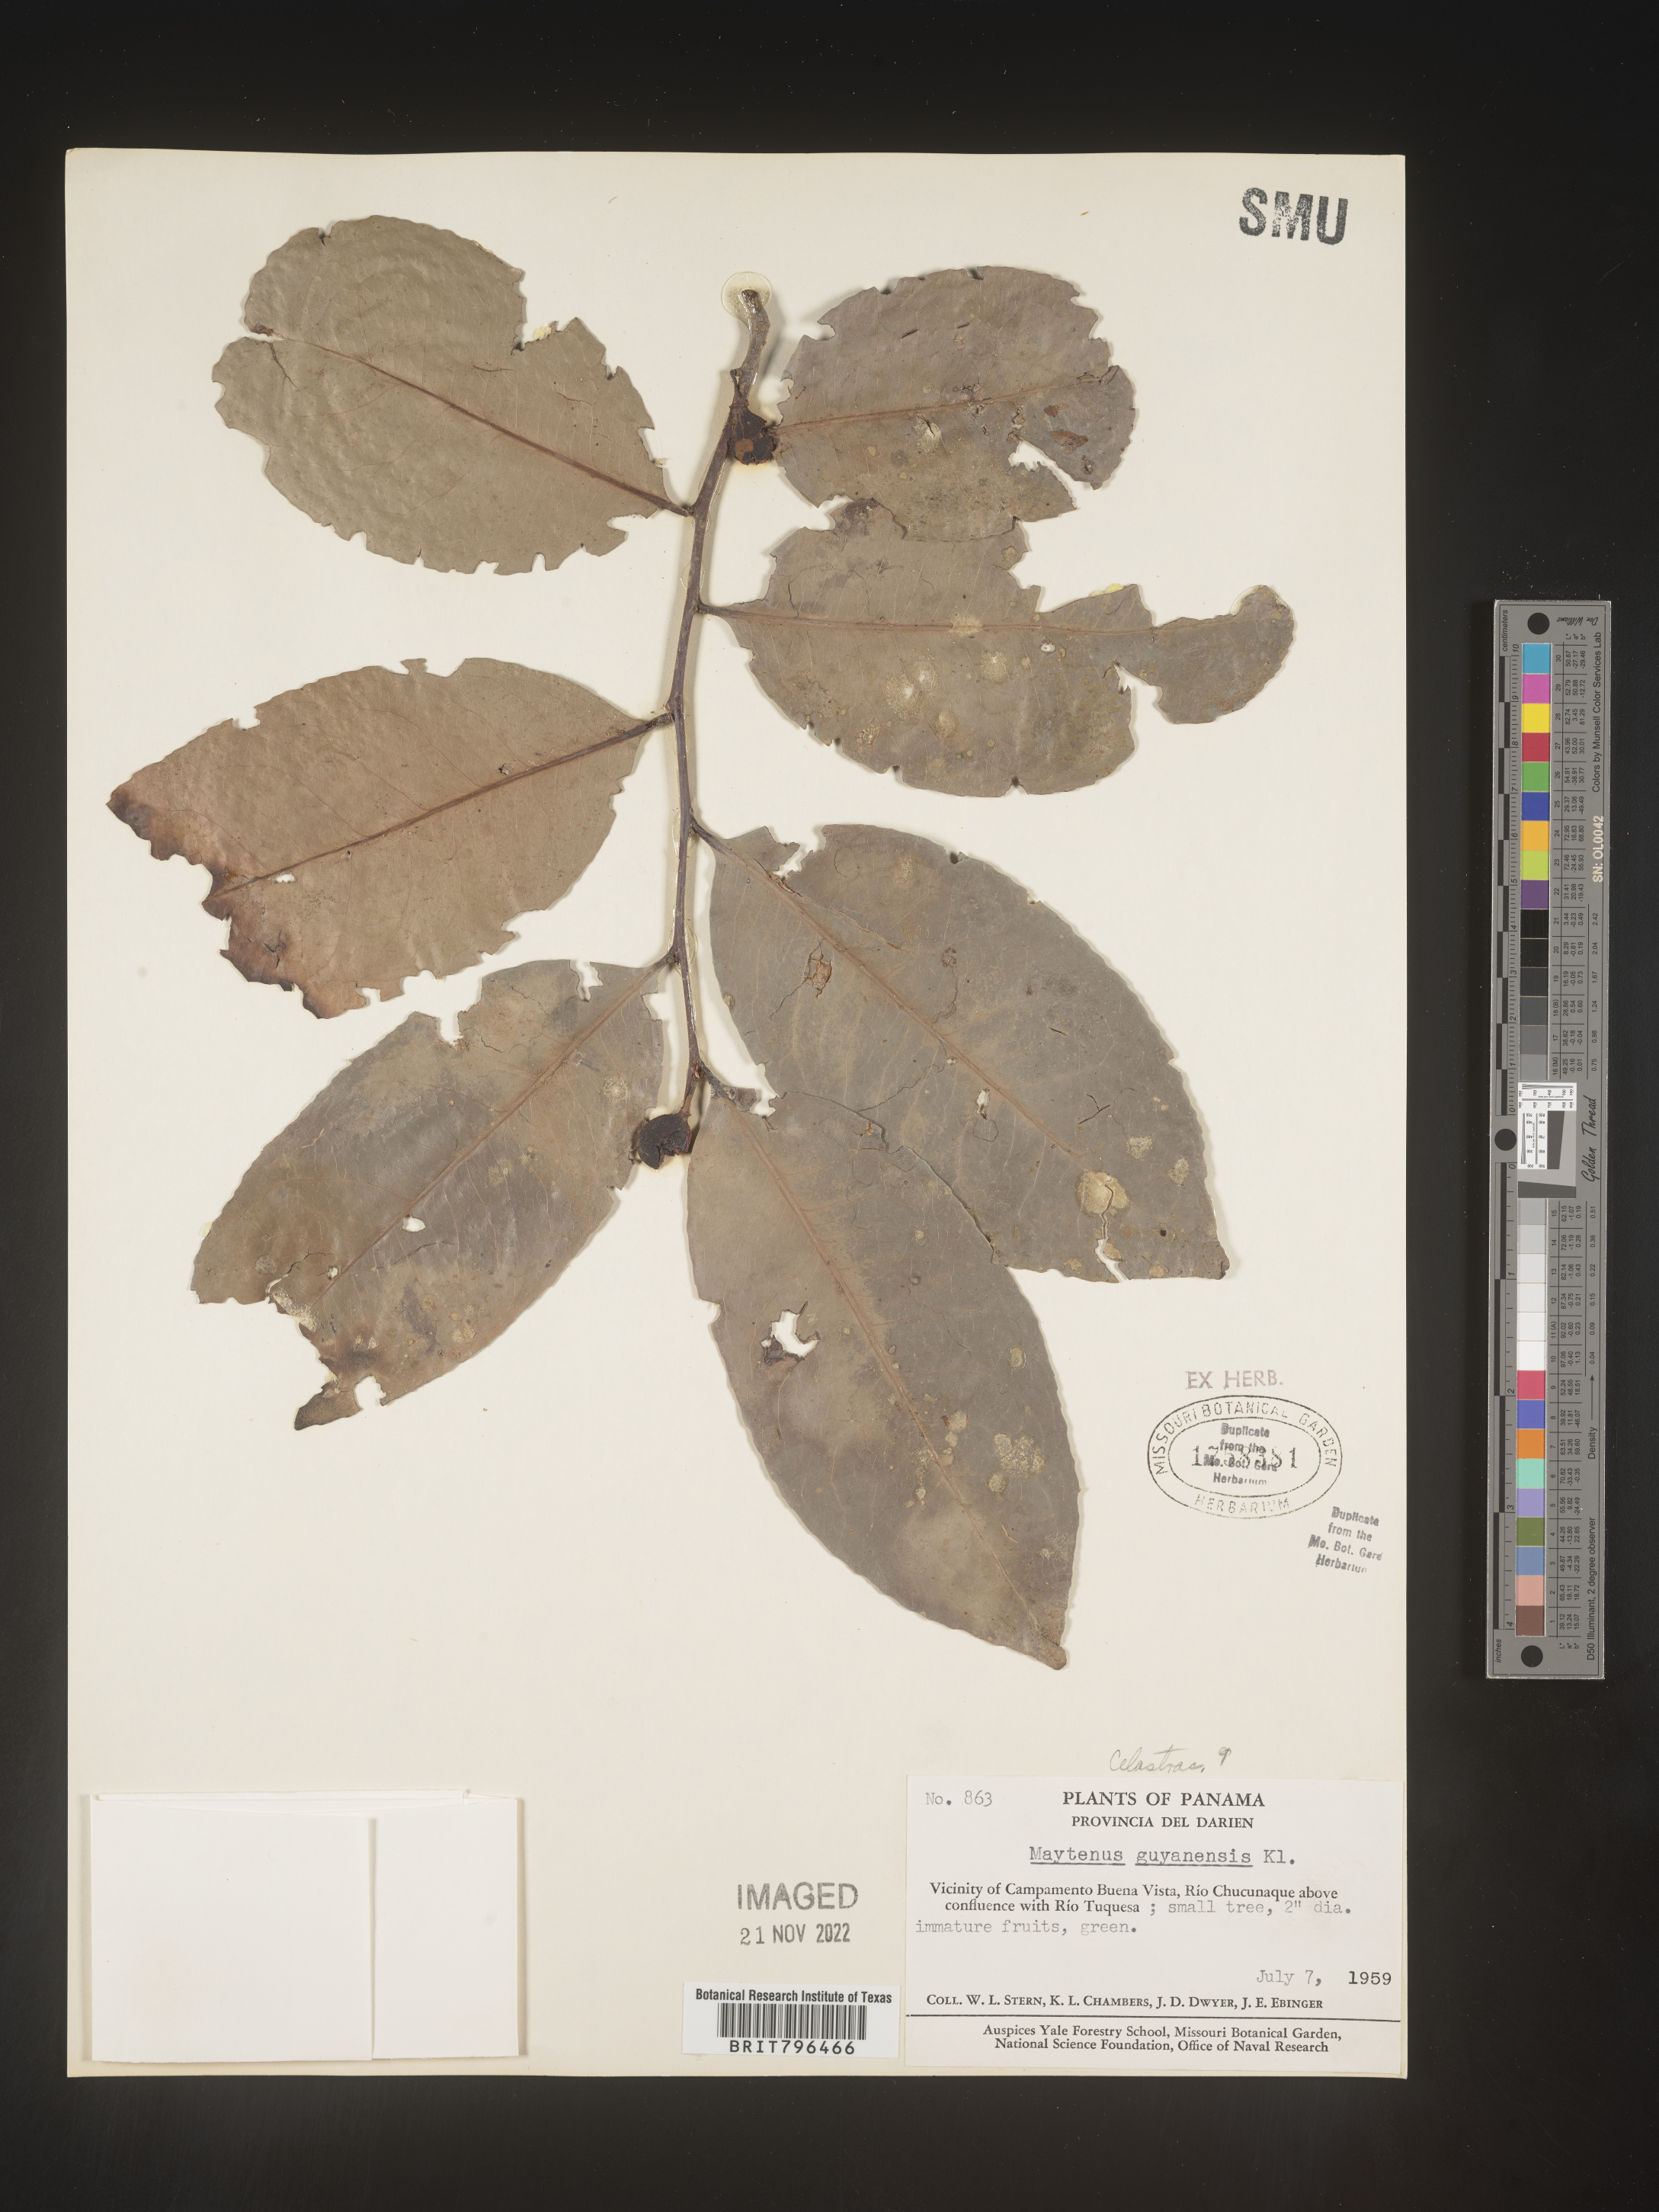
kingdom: Plantae
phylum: Tracheophyta
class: Magnoliopsida
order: Celastrales
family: Celastraceae
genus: Maytenus
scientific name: Maytenus
